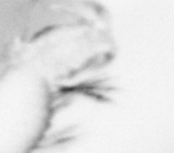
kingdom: Animalia
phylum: Annelida
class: Polychaeta
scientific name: Polychaeta
